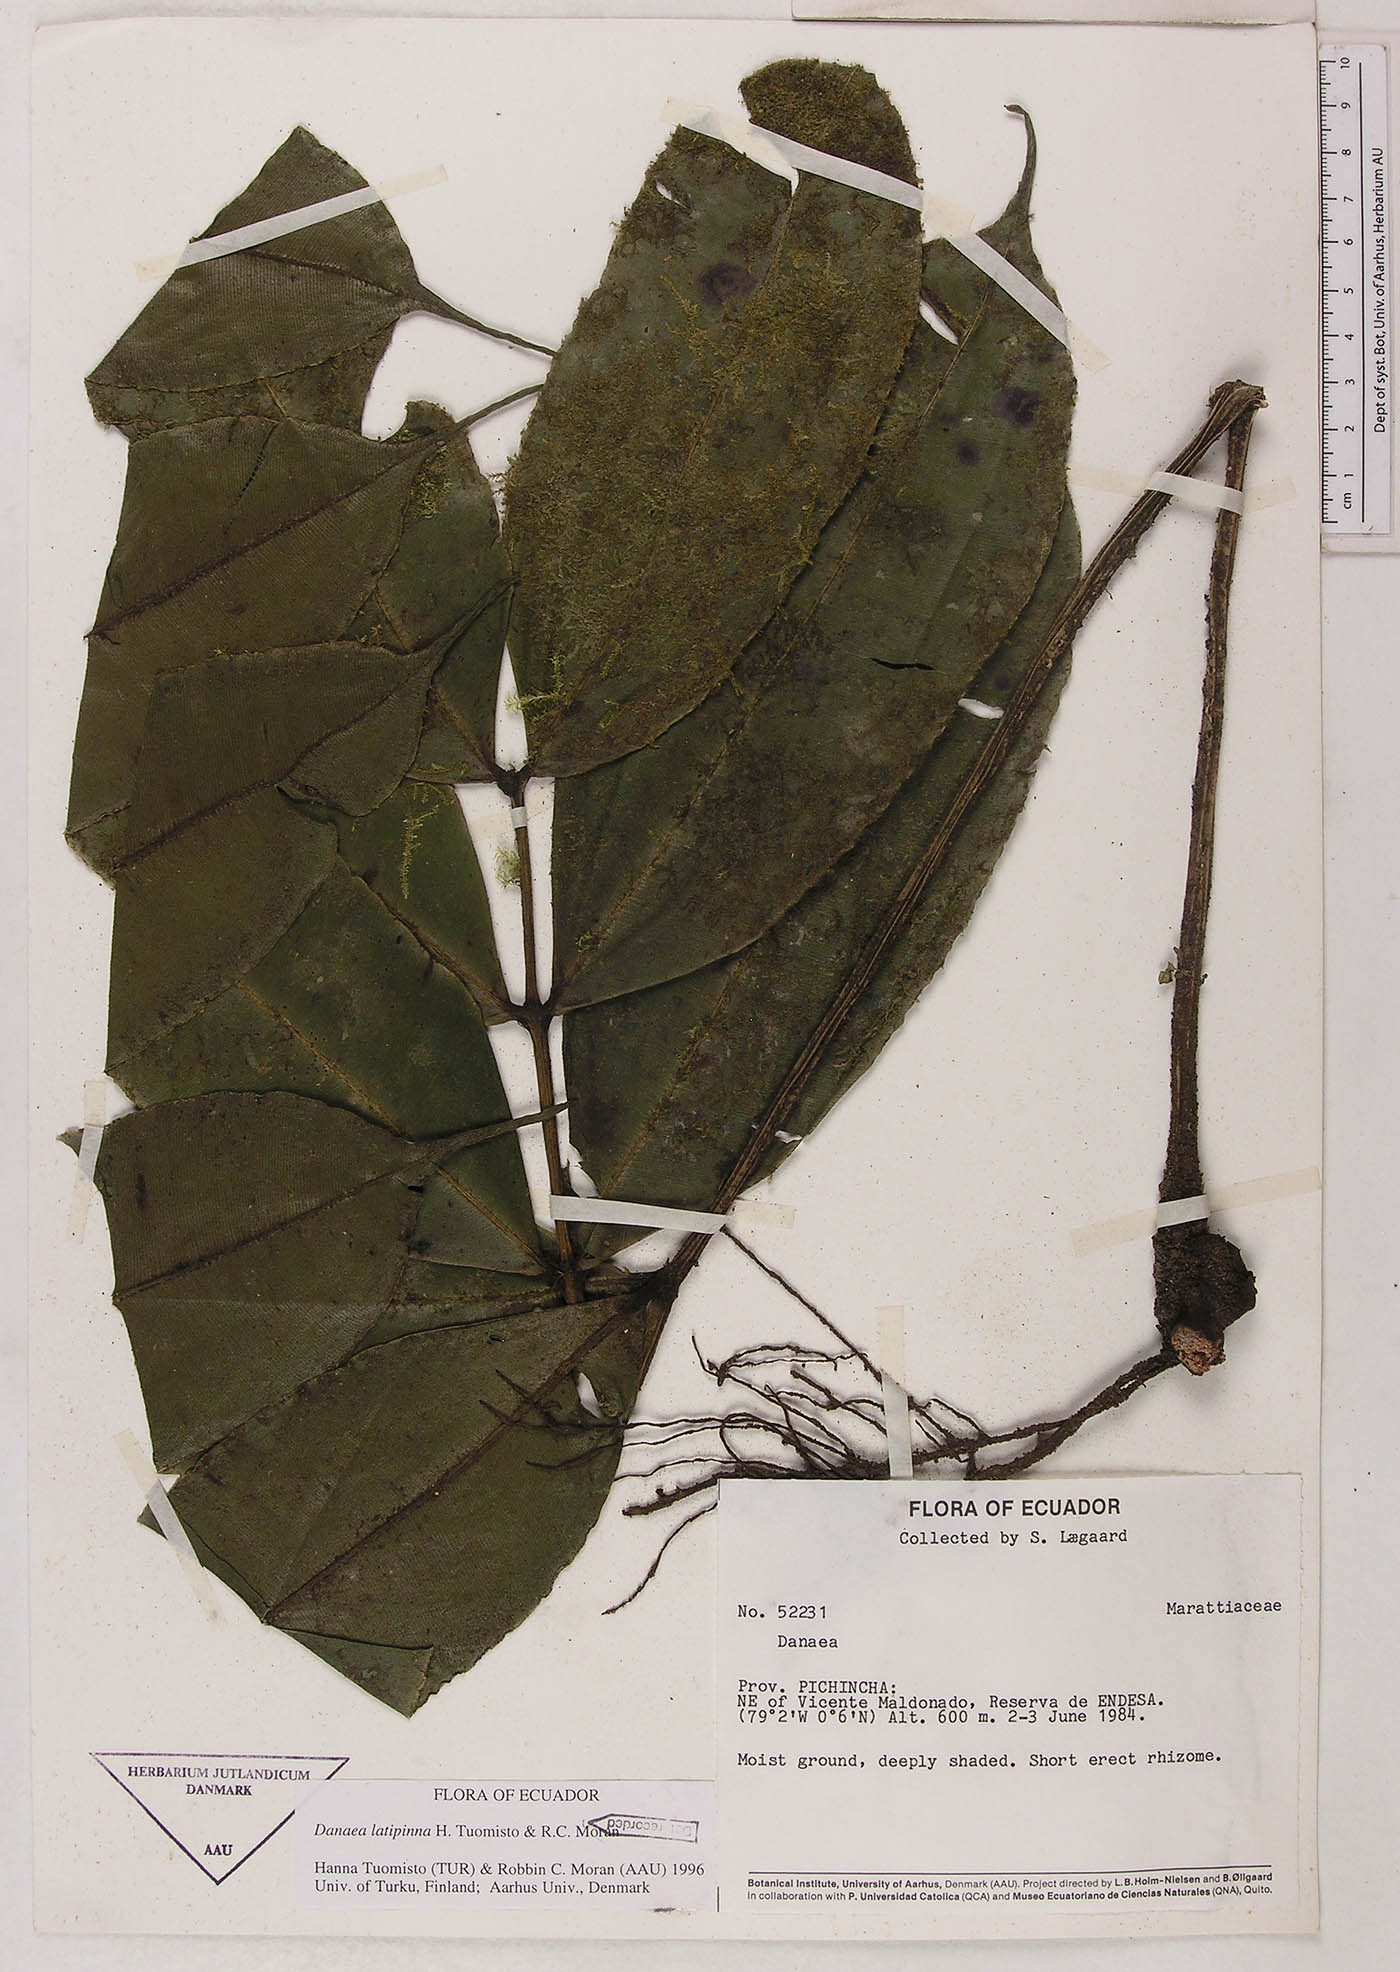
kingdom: Plantae
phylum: Tracheophyta
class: Polypodiopsida
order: Marattiales
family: Marattiaceae
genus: Danaea
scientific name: Danaea
